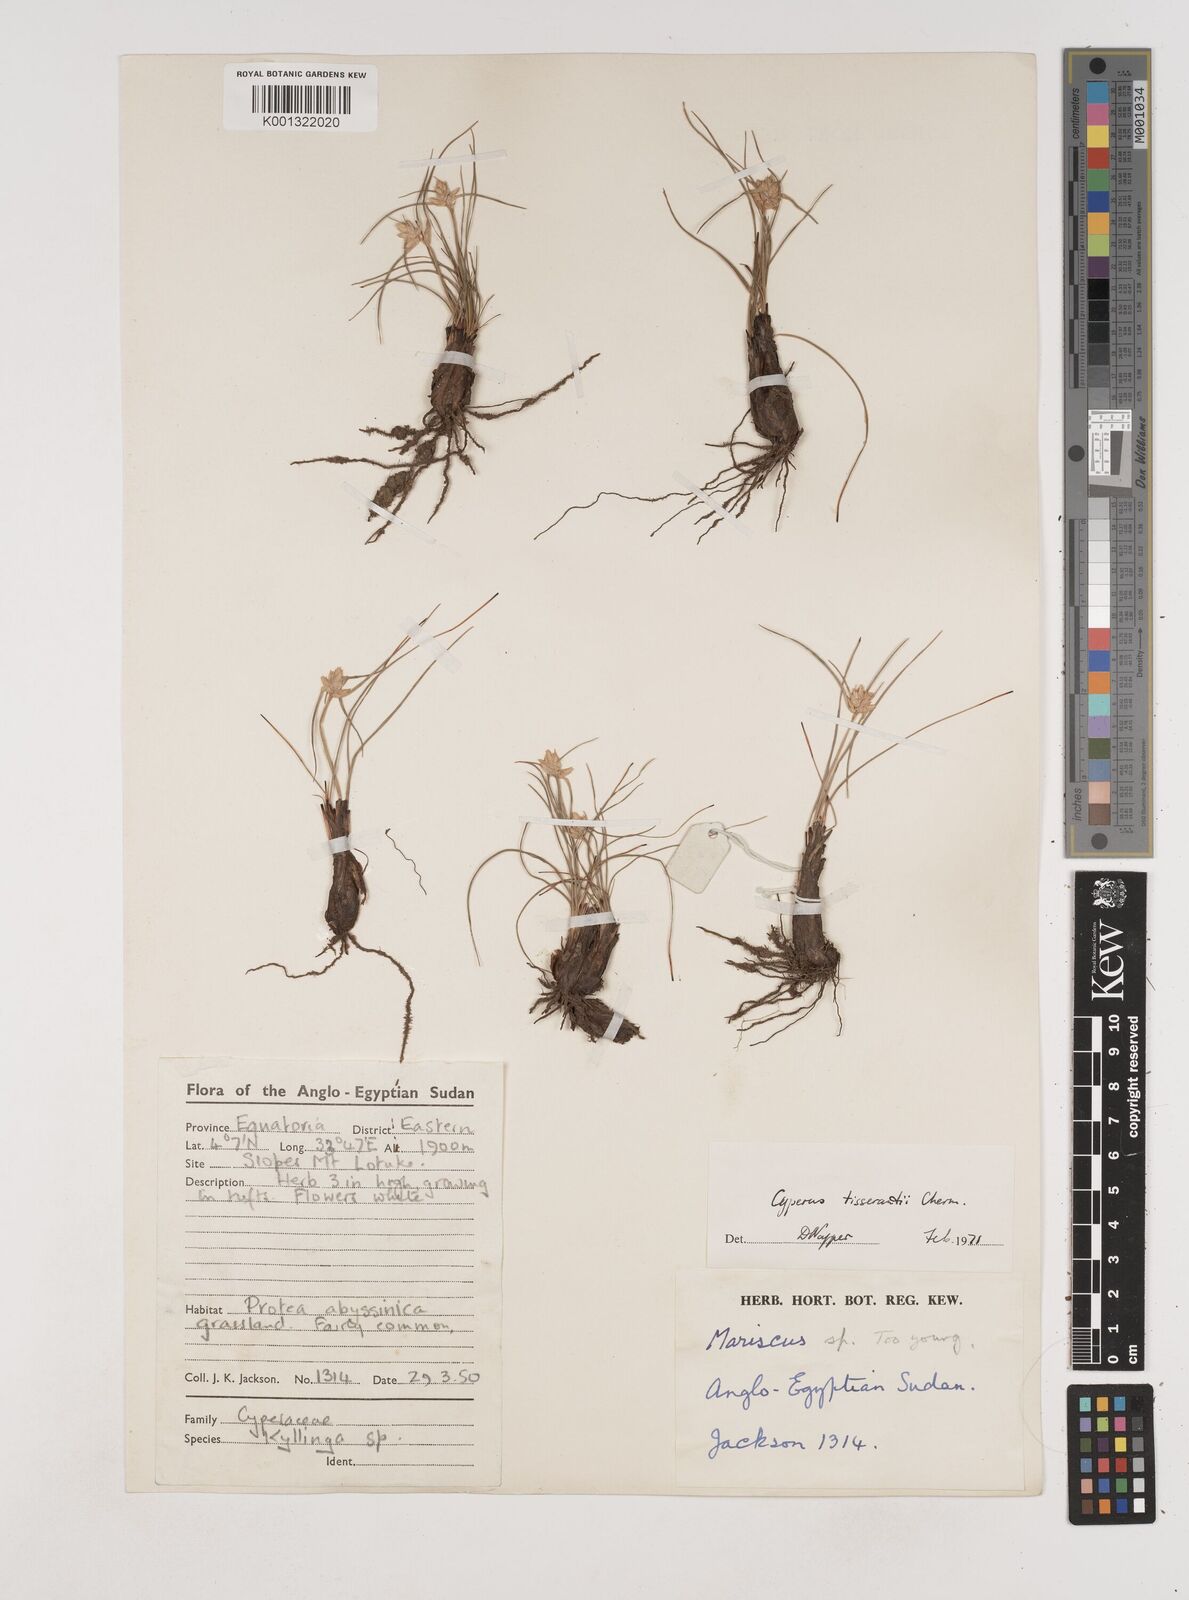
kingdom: Plantae
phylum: Tracheophyta
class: Liliopsida
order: Poales
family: Cyperaceae
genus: Cyperus
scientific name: Cyperus niveus
